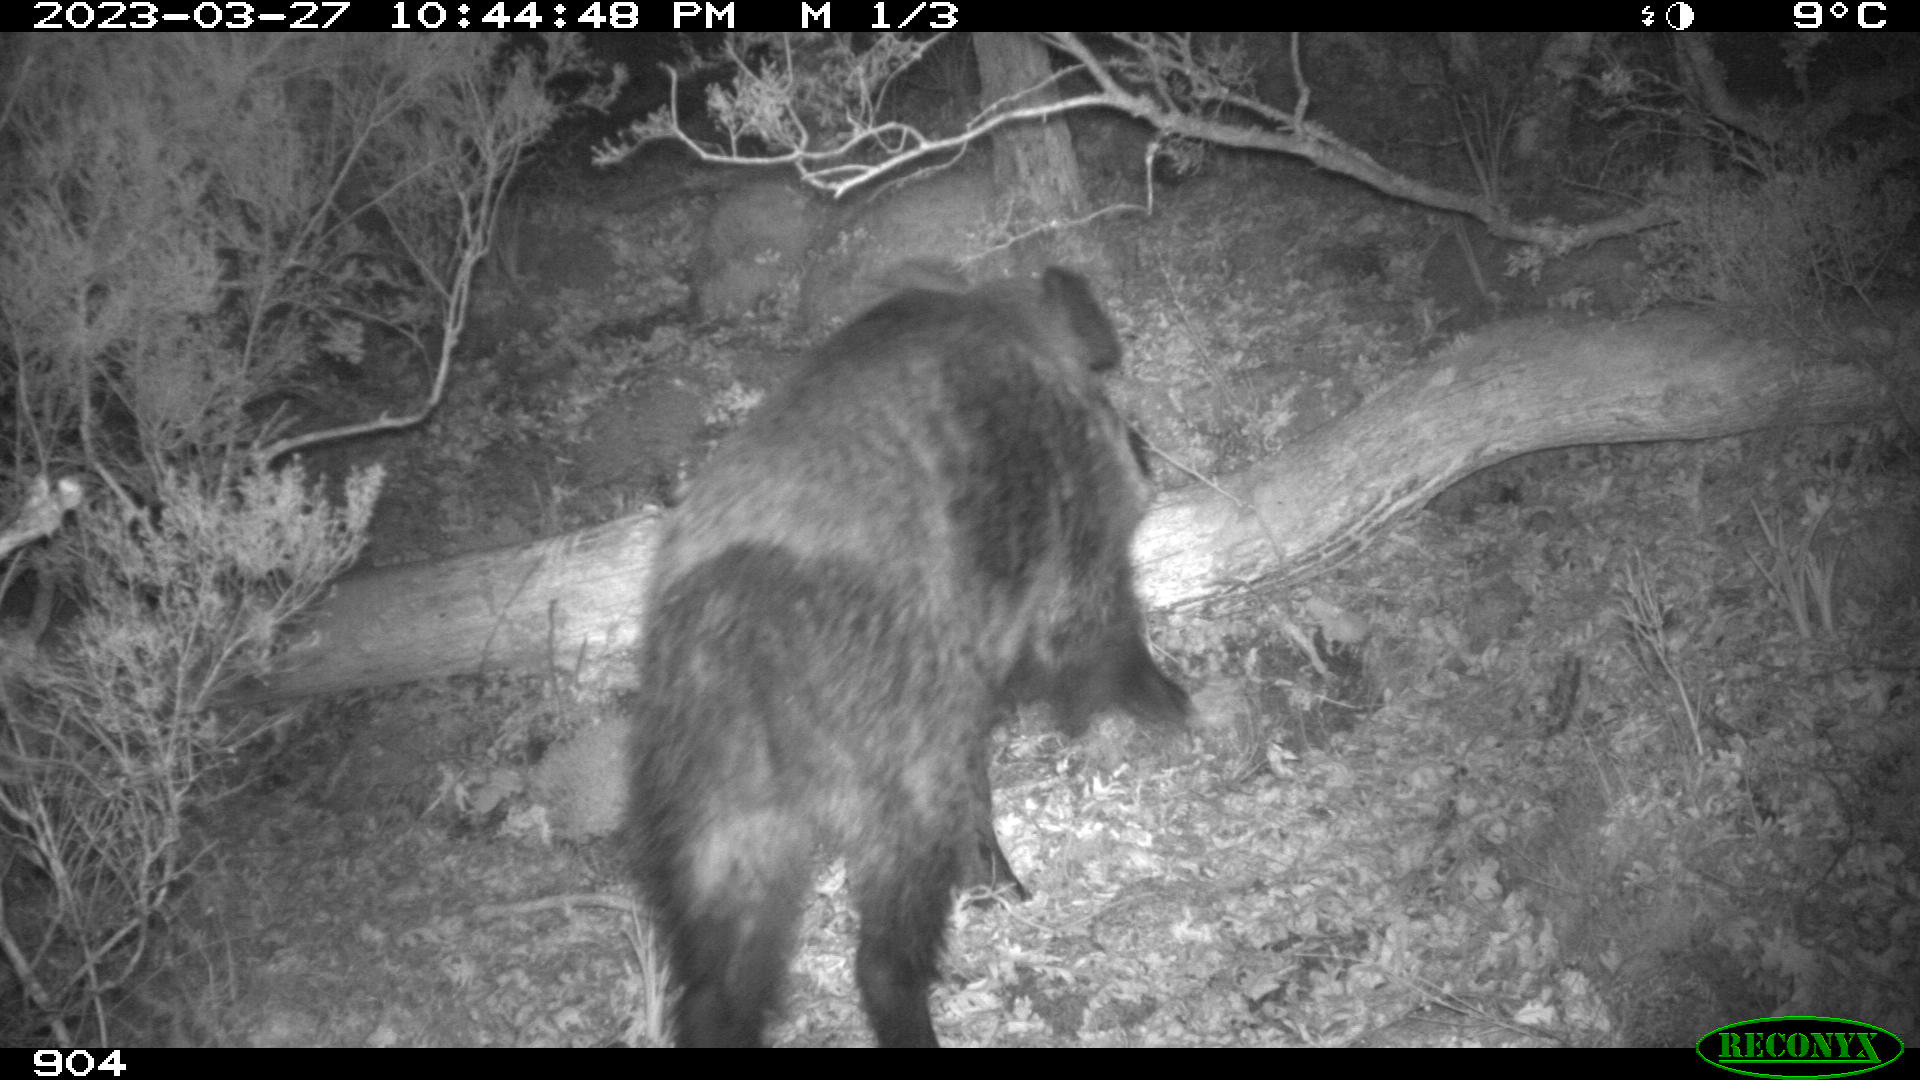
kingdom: Animalia
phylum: Chordata
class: Mammalia
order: Artiodactyla
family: Suidae
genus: Sus
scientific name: Sus scrofa
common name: Wild boar
